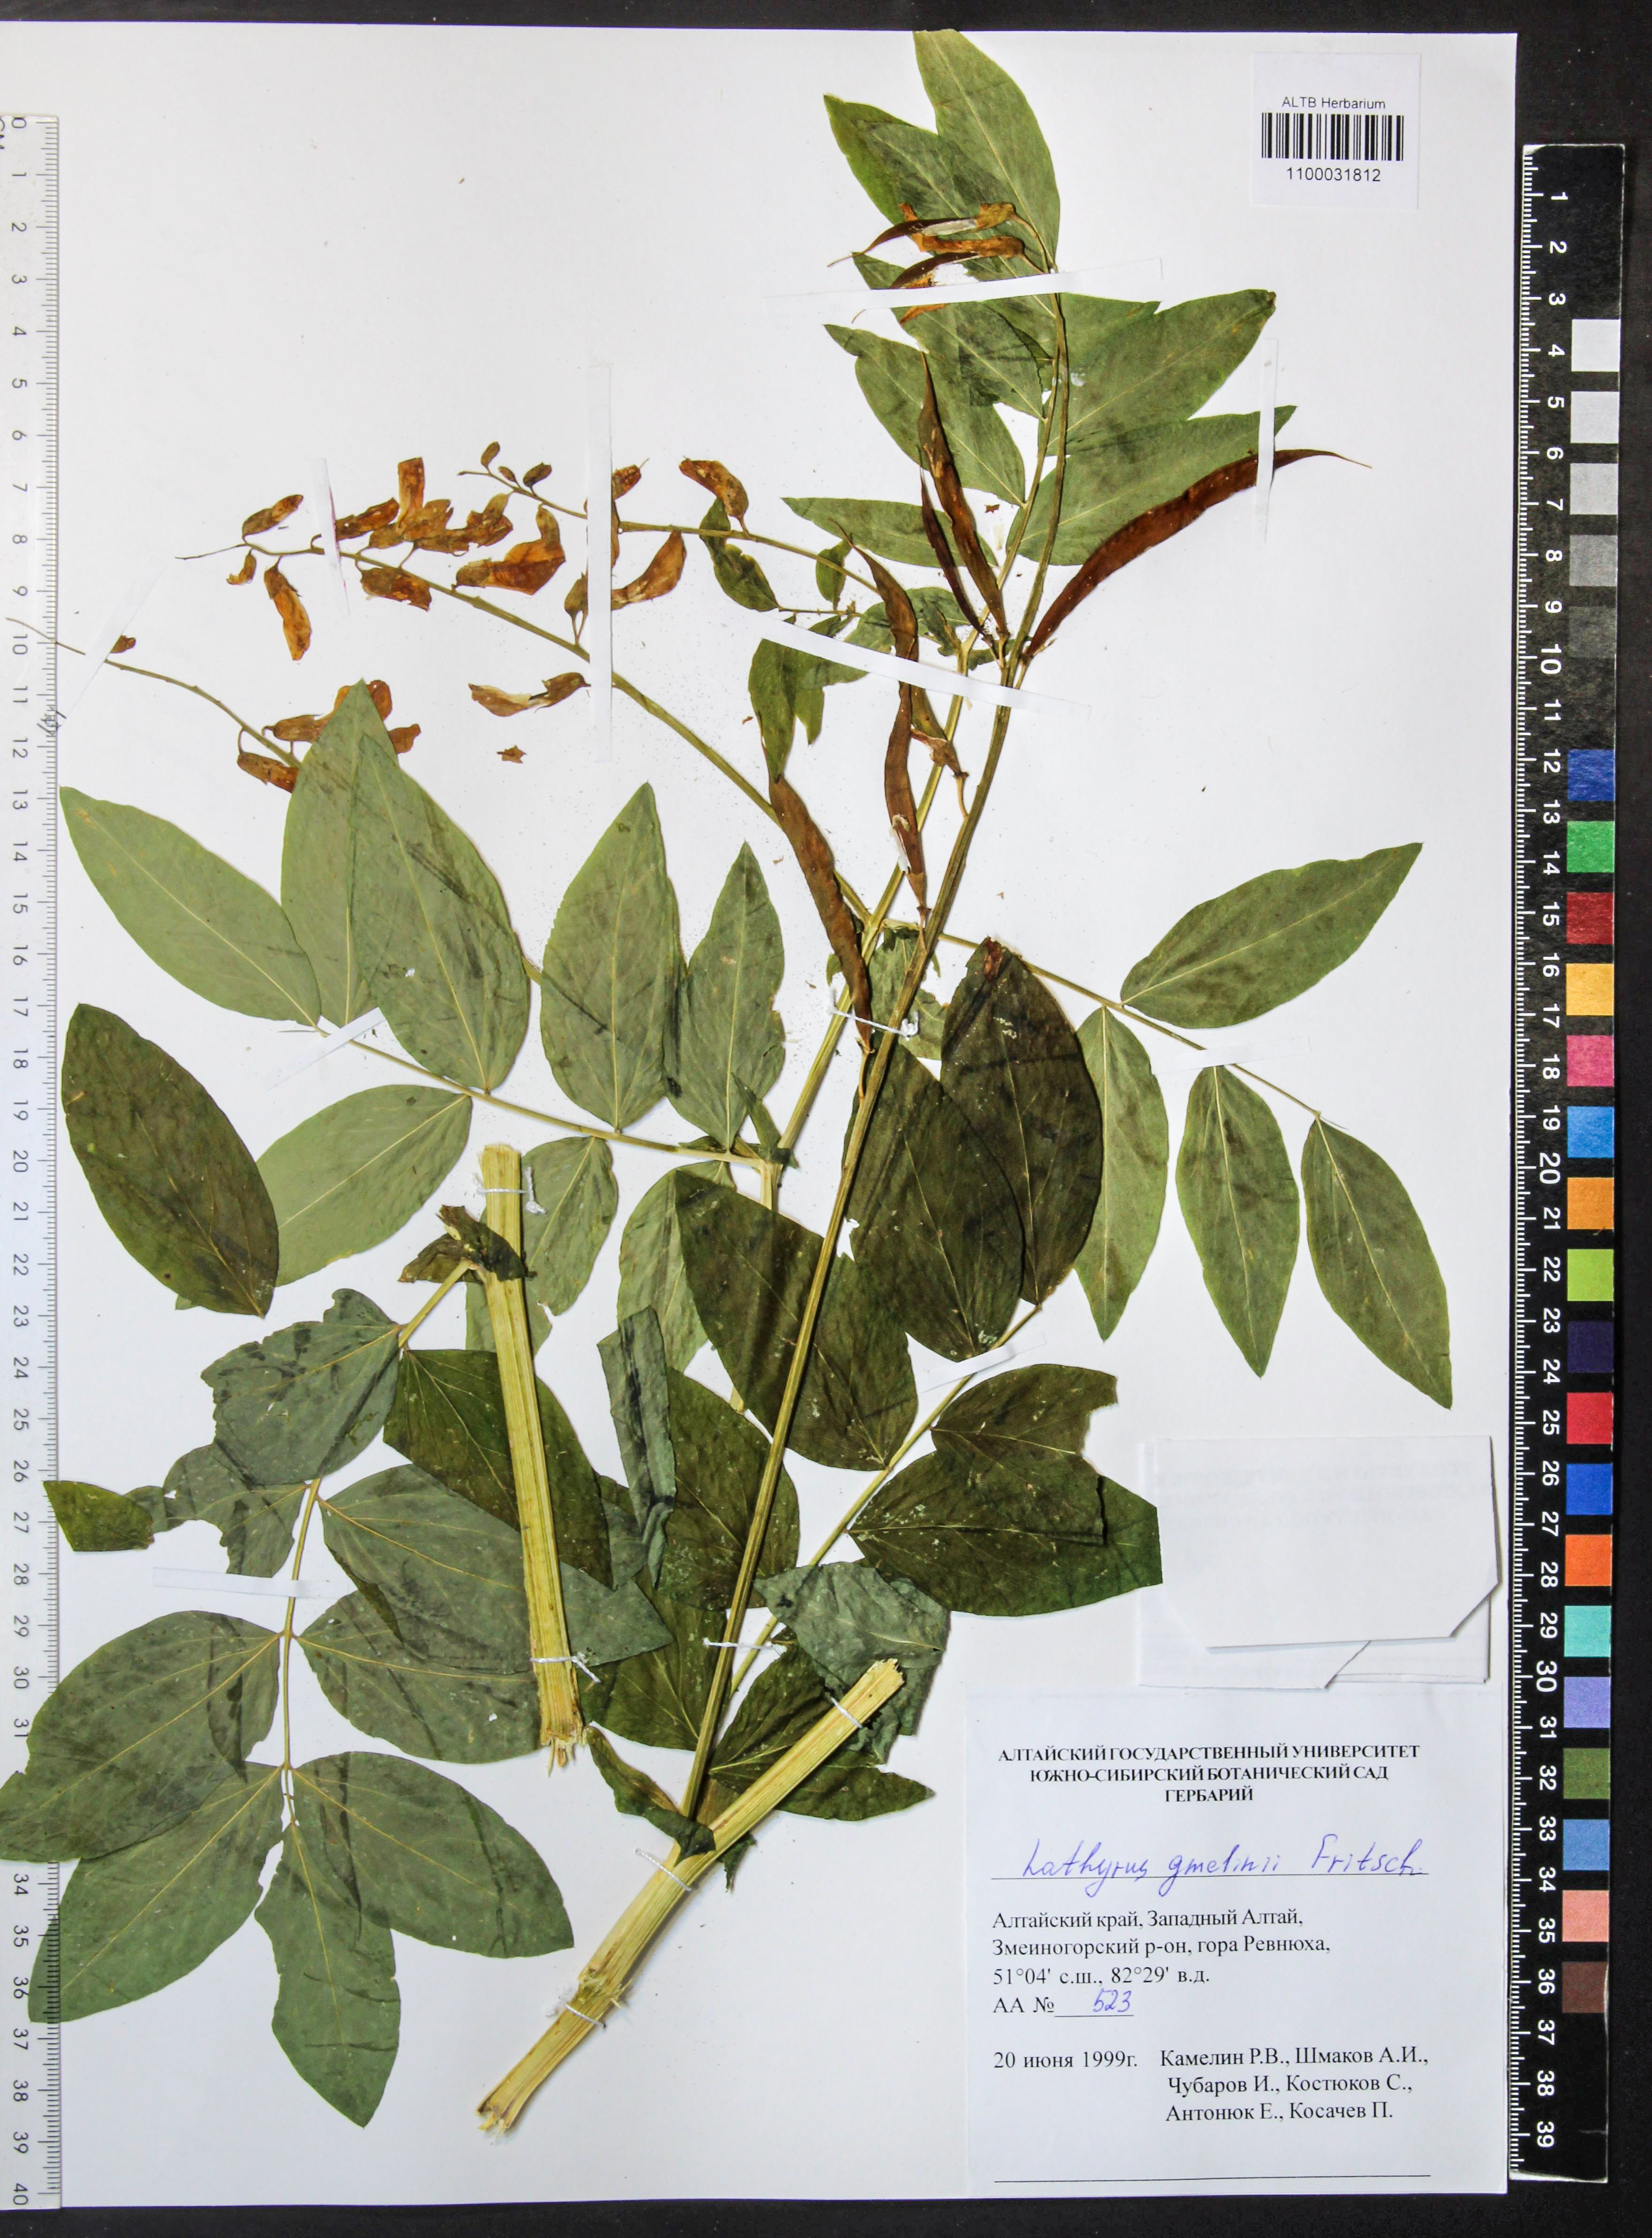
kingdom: Plantae
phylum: Tracheophyta
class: Magnoliopsida
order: Fabales
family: Fabaceae
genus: Lathyrus
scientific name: Lathyrus gmelinii
